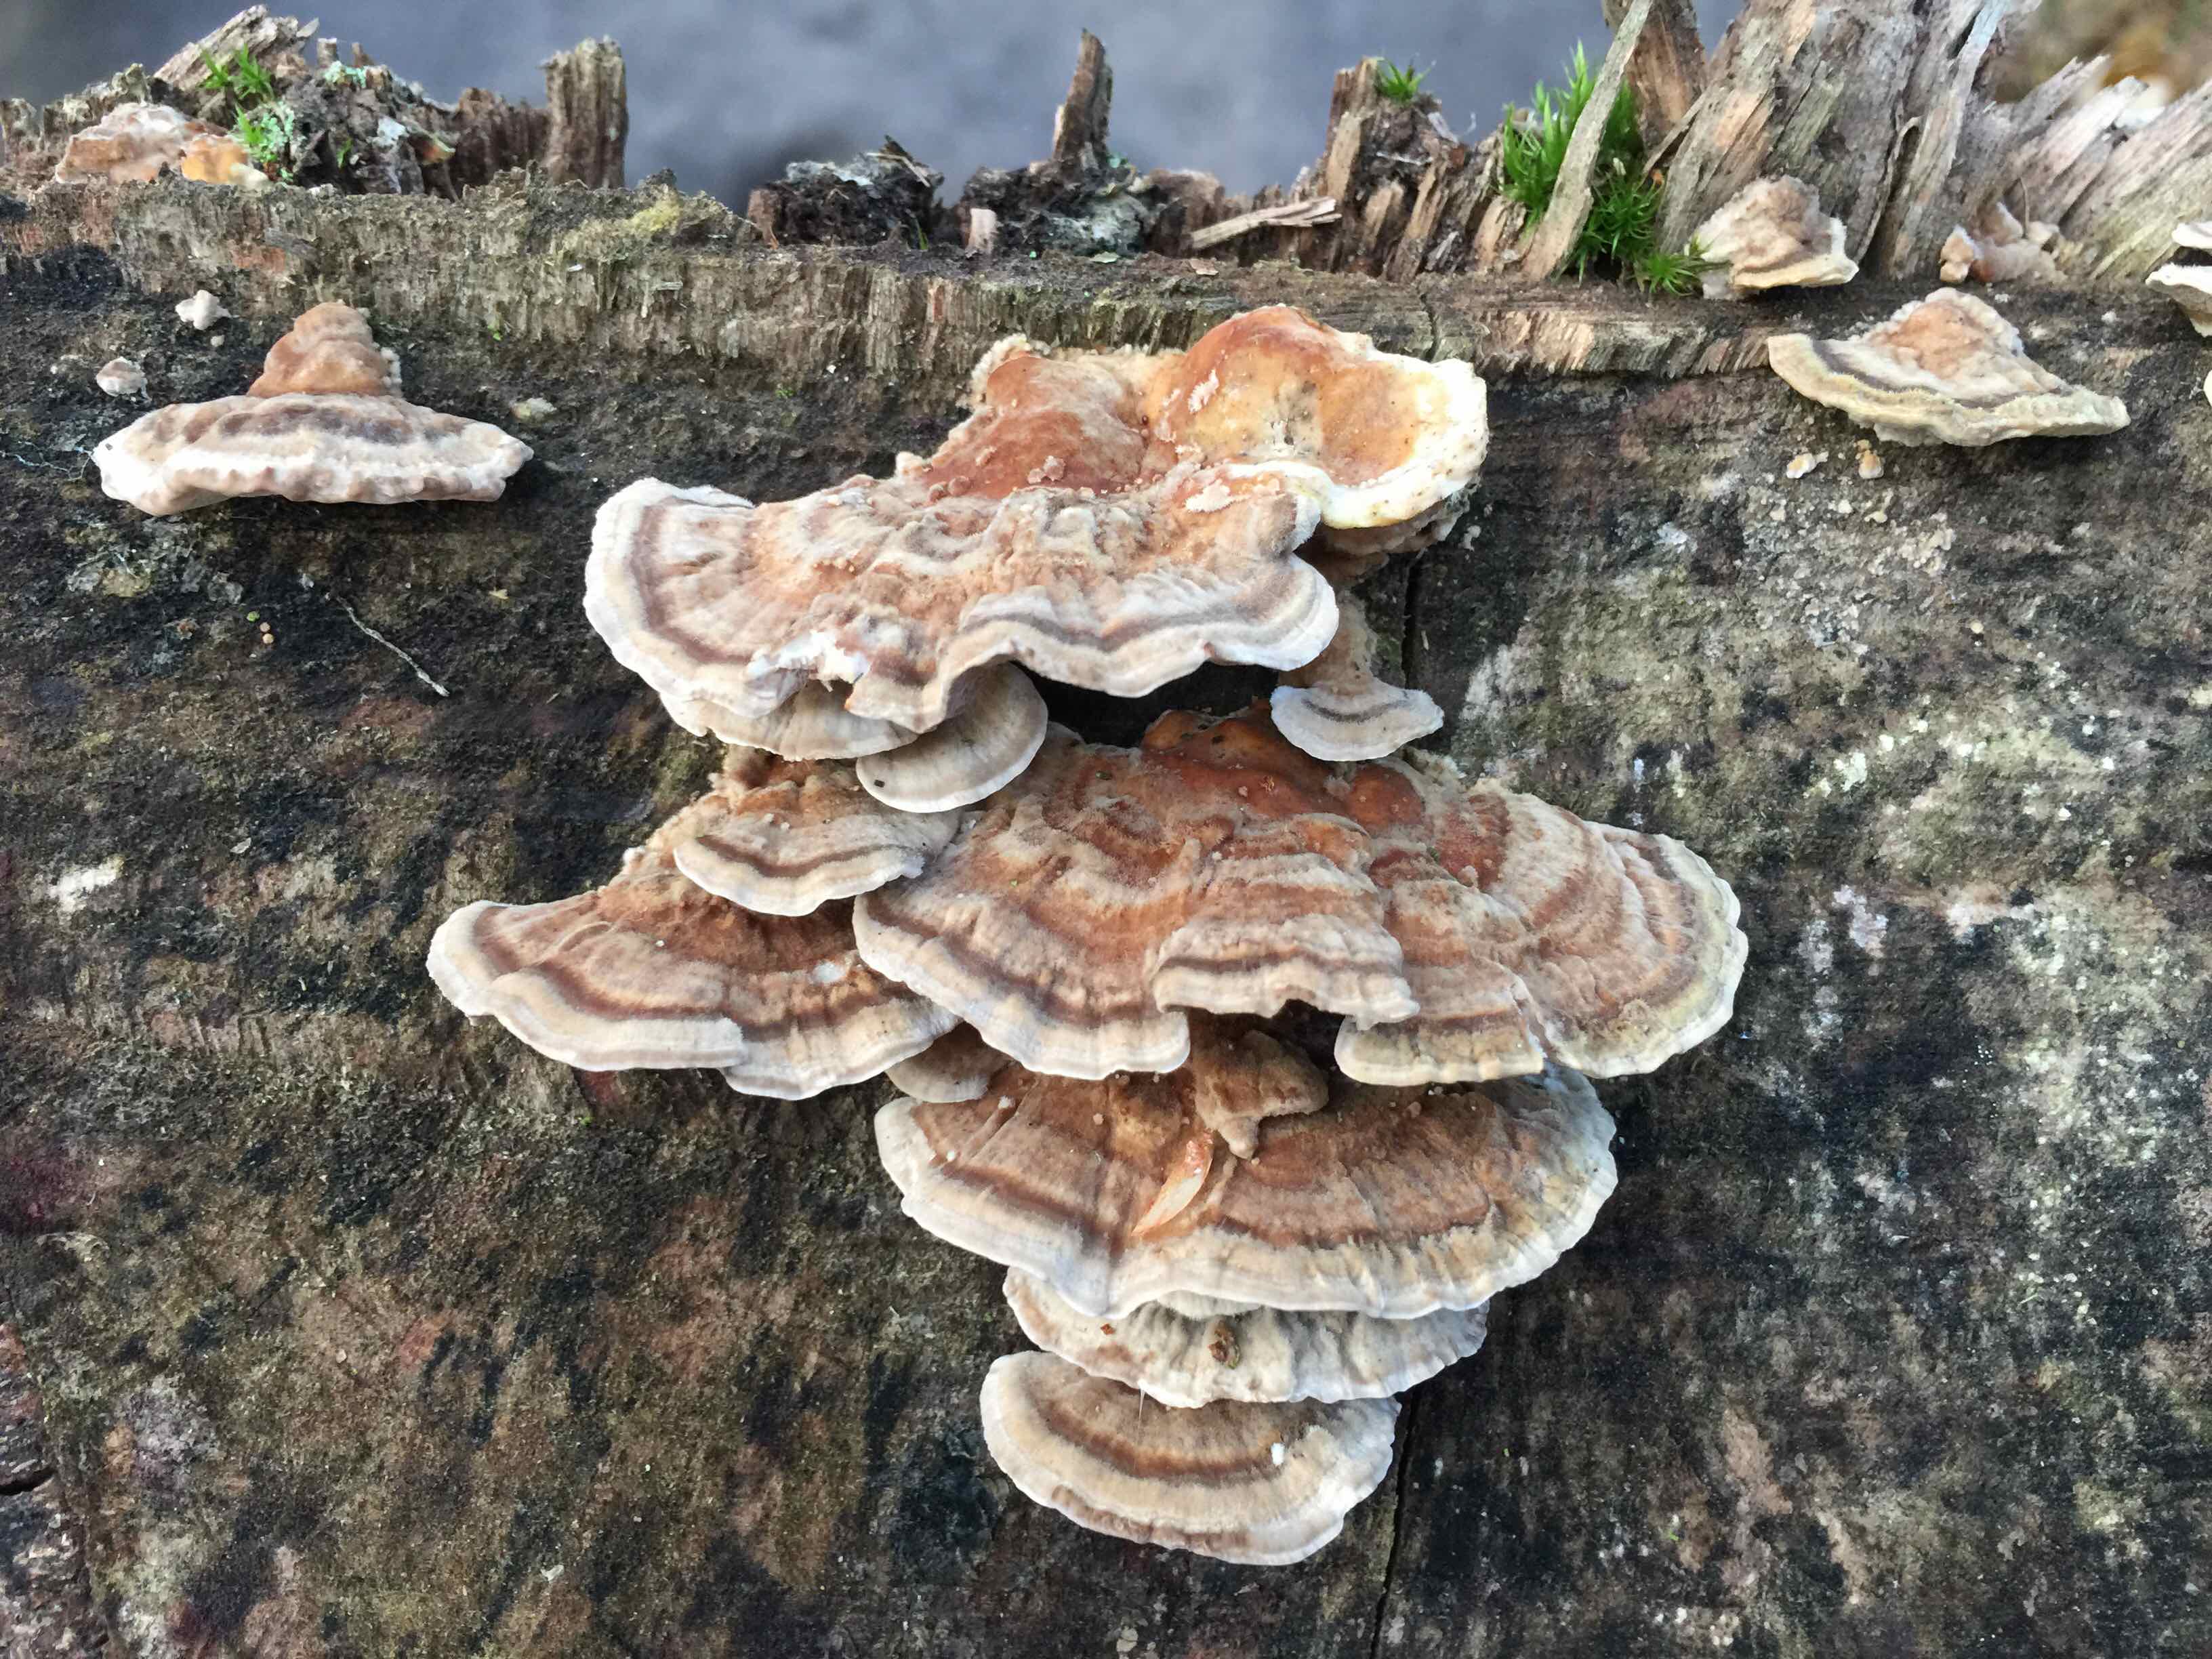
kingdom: Fungi
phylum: Basidiomycota
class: Agaricomycetes
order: Polyporales
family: Polyporaceae
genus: Trametes
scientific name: Trametes ochracea
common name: bæltet læderporesvamp
